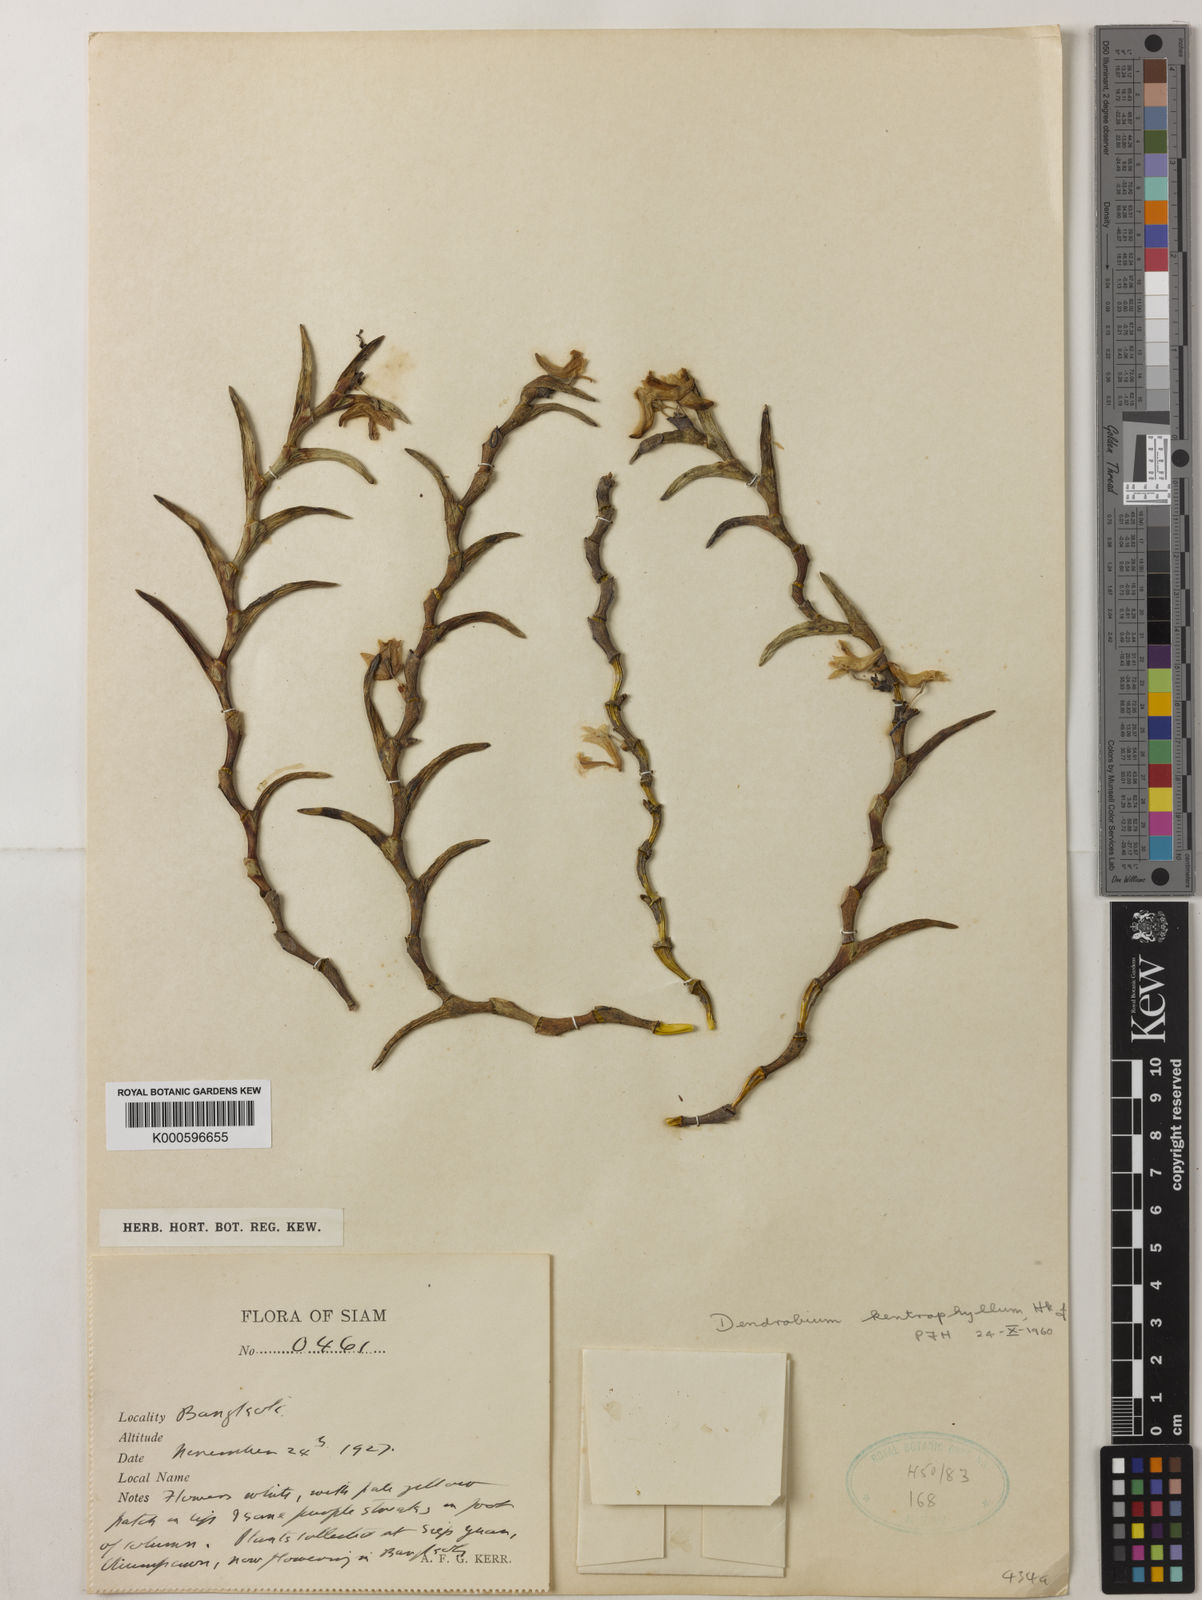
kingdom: Plantae
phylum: Tracheophyta
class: Liliopsida
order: Asparagales
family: Orchidaceae
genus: Dendrobium
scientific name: Dendrobium kentrophyllum
